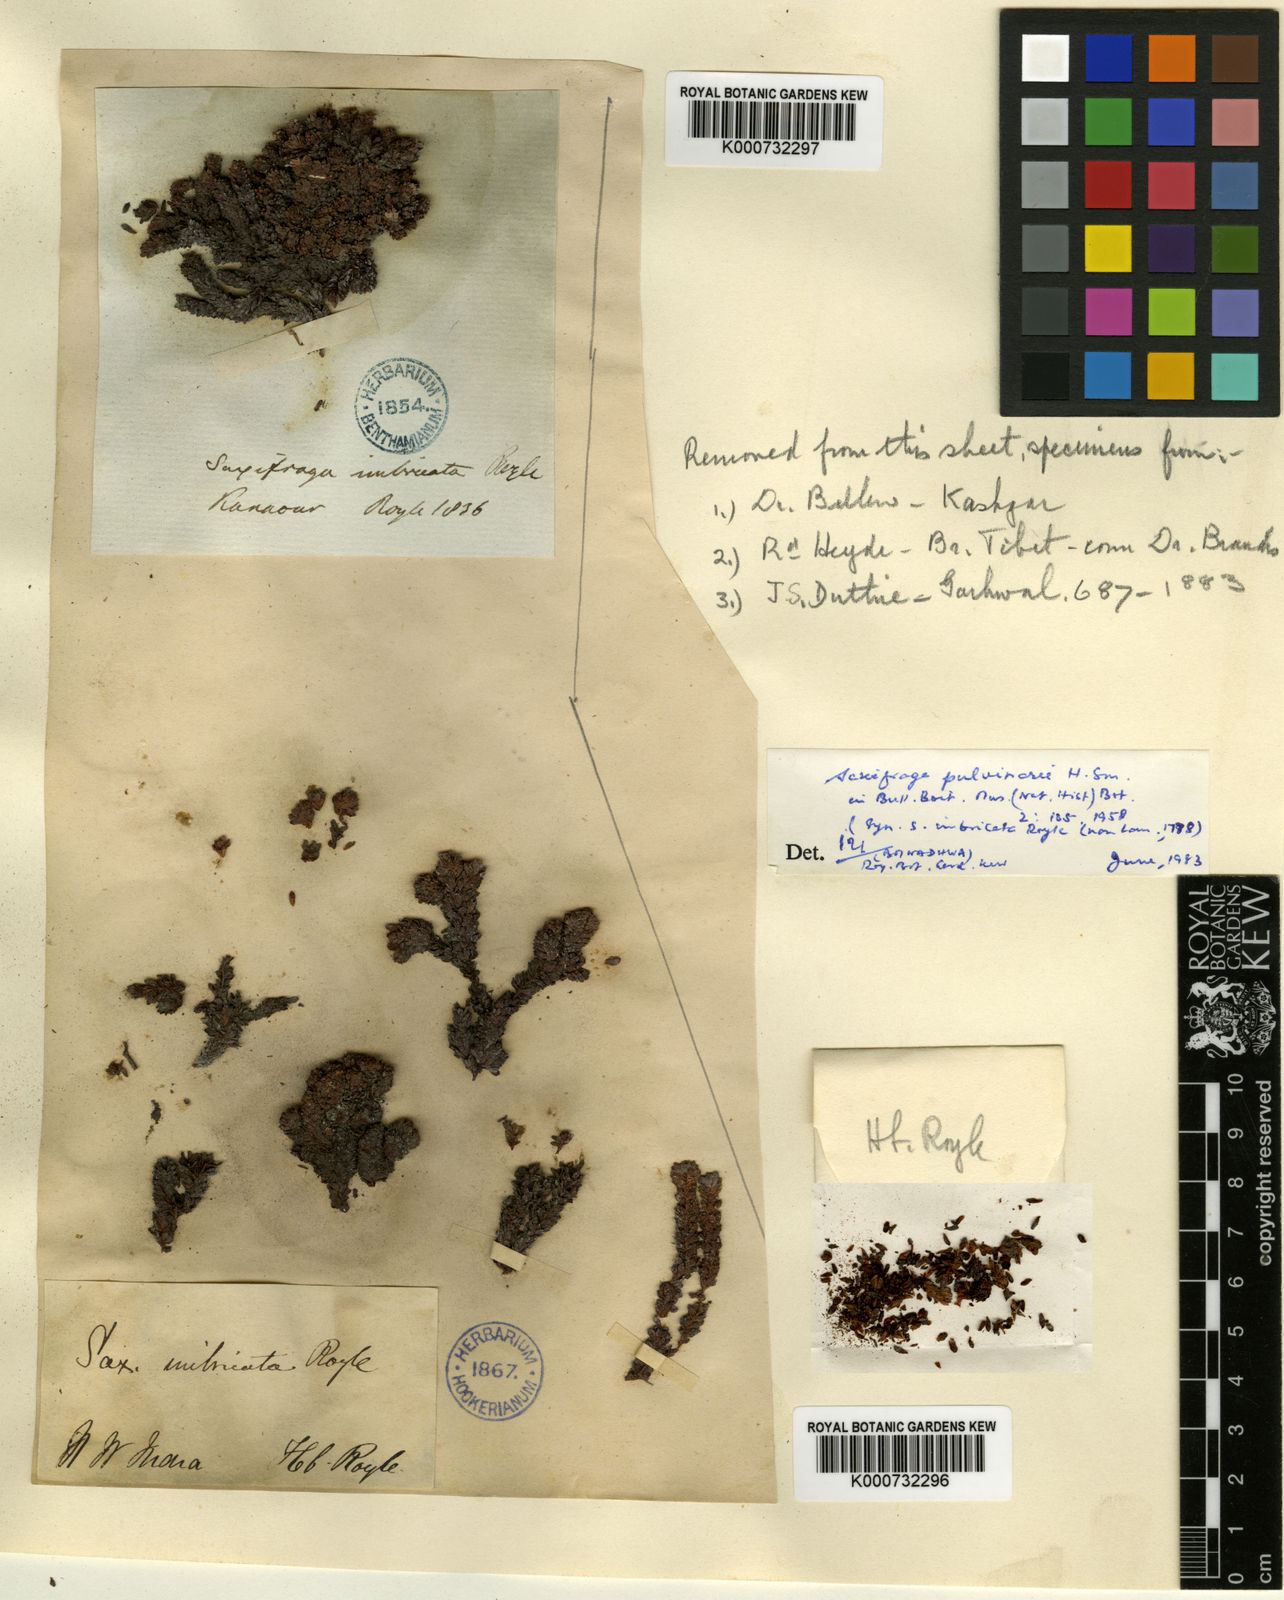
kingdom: Plantae
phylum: Tracheophyta
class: Magnoliopsida
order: Saxifragales
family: Saxifragaceae
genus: Saxifraga
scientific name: Saxifraga pulvinaria
